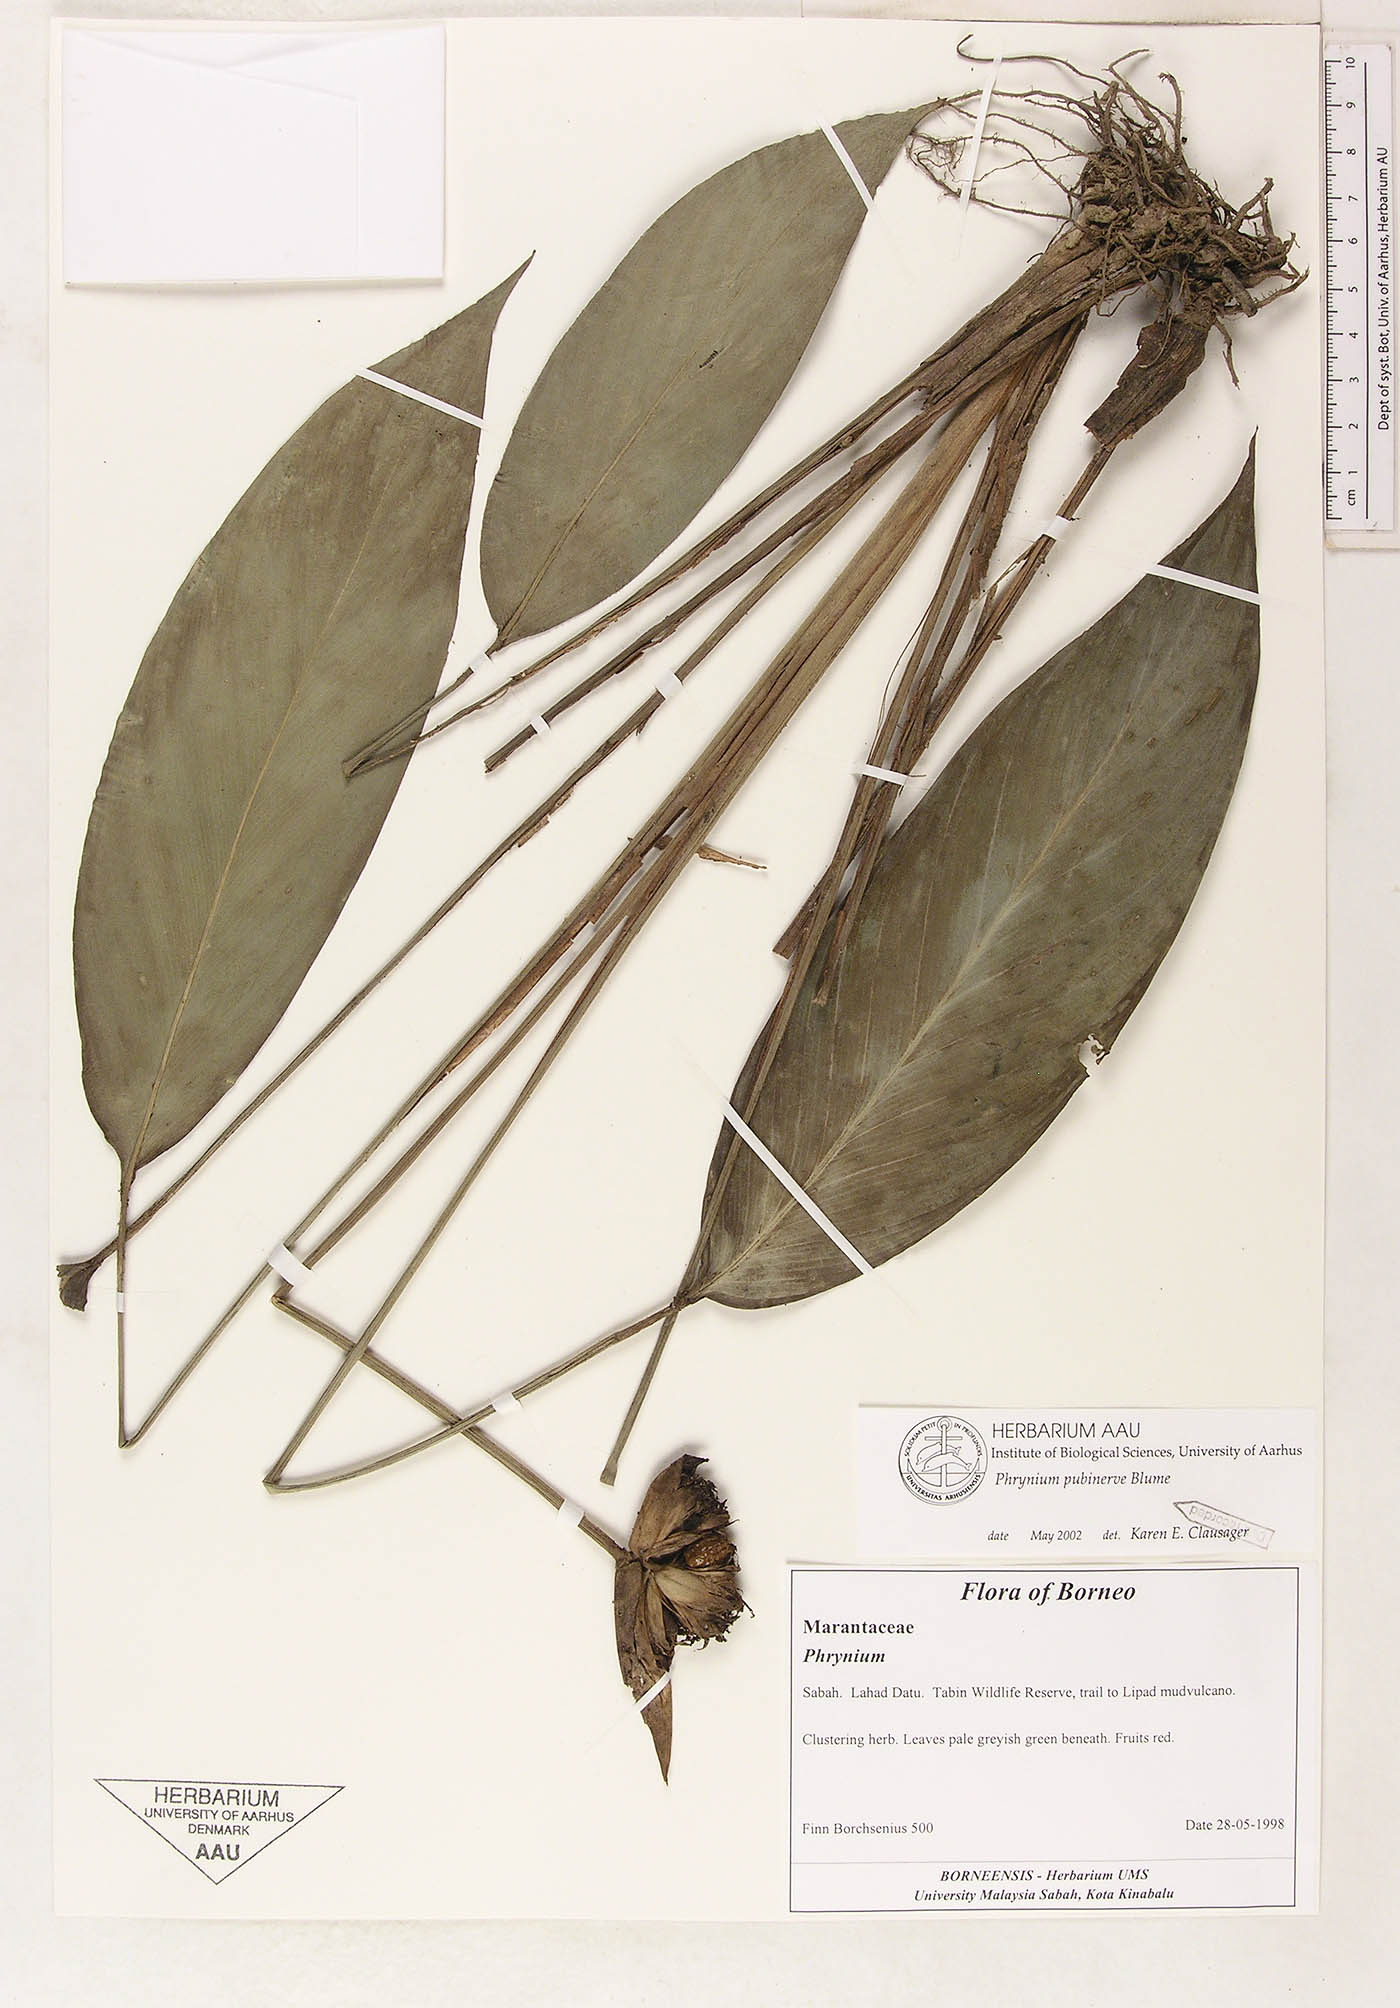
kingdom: Plantae
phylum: Tracheophyta
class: Liliopsida
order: Zingiberales
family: Marantaceae
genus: Phrynium
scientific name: Phrynium pubinerve
